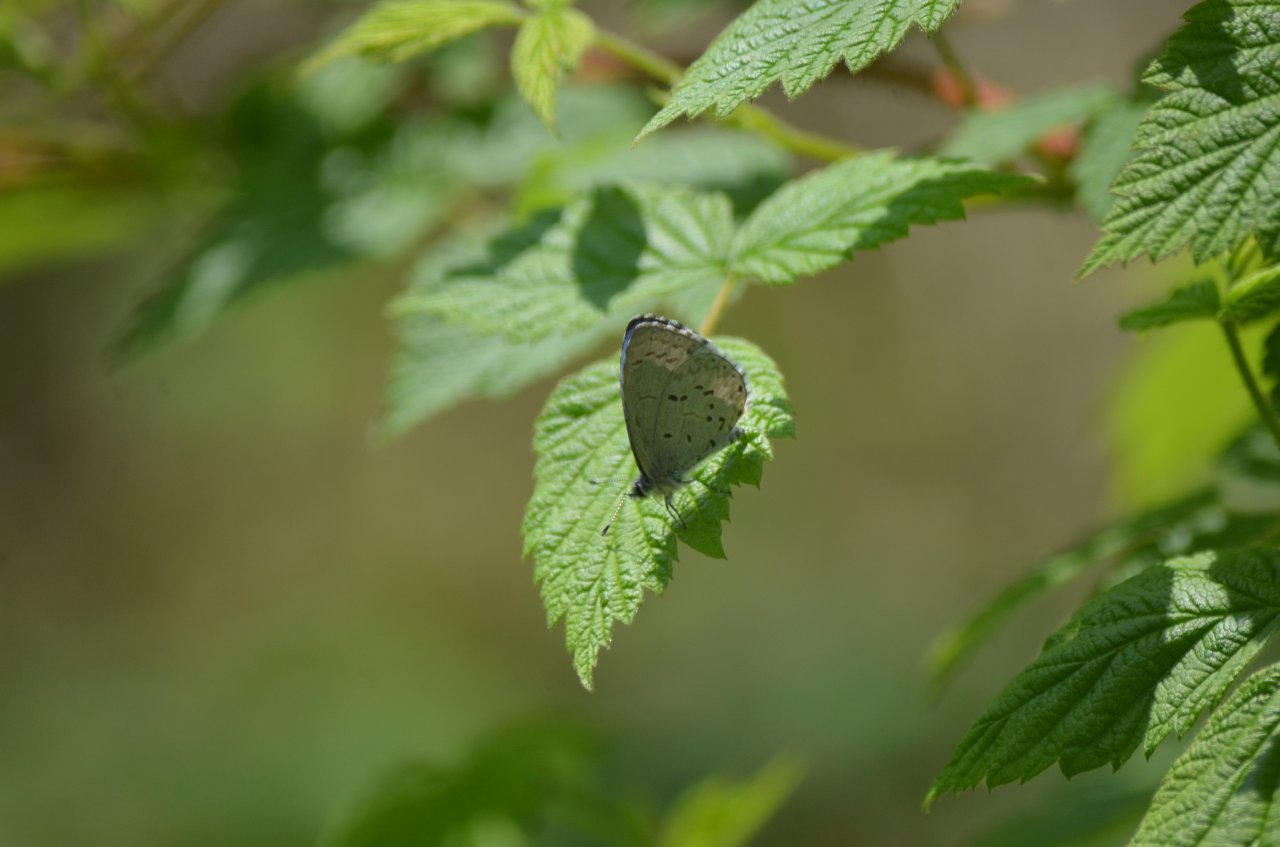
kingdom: Animalia
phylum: Arthropoda
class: Insecta
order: Lepidoptera
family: Lycaenidae
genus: Celastrina
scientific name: Celastrina
